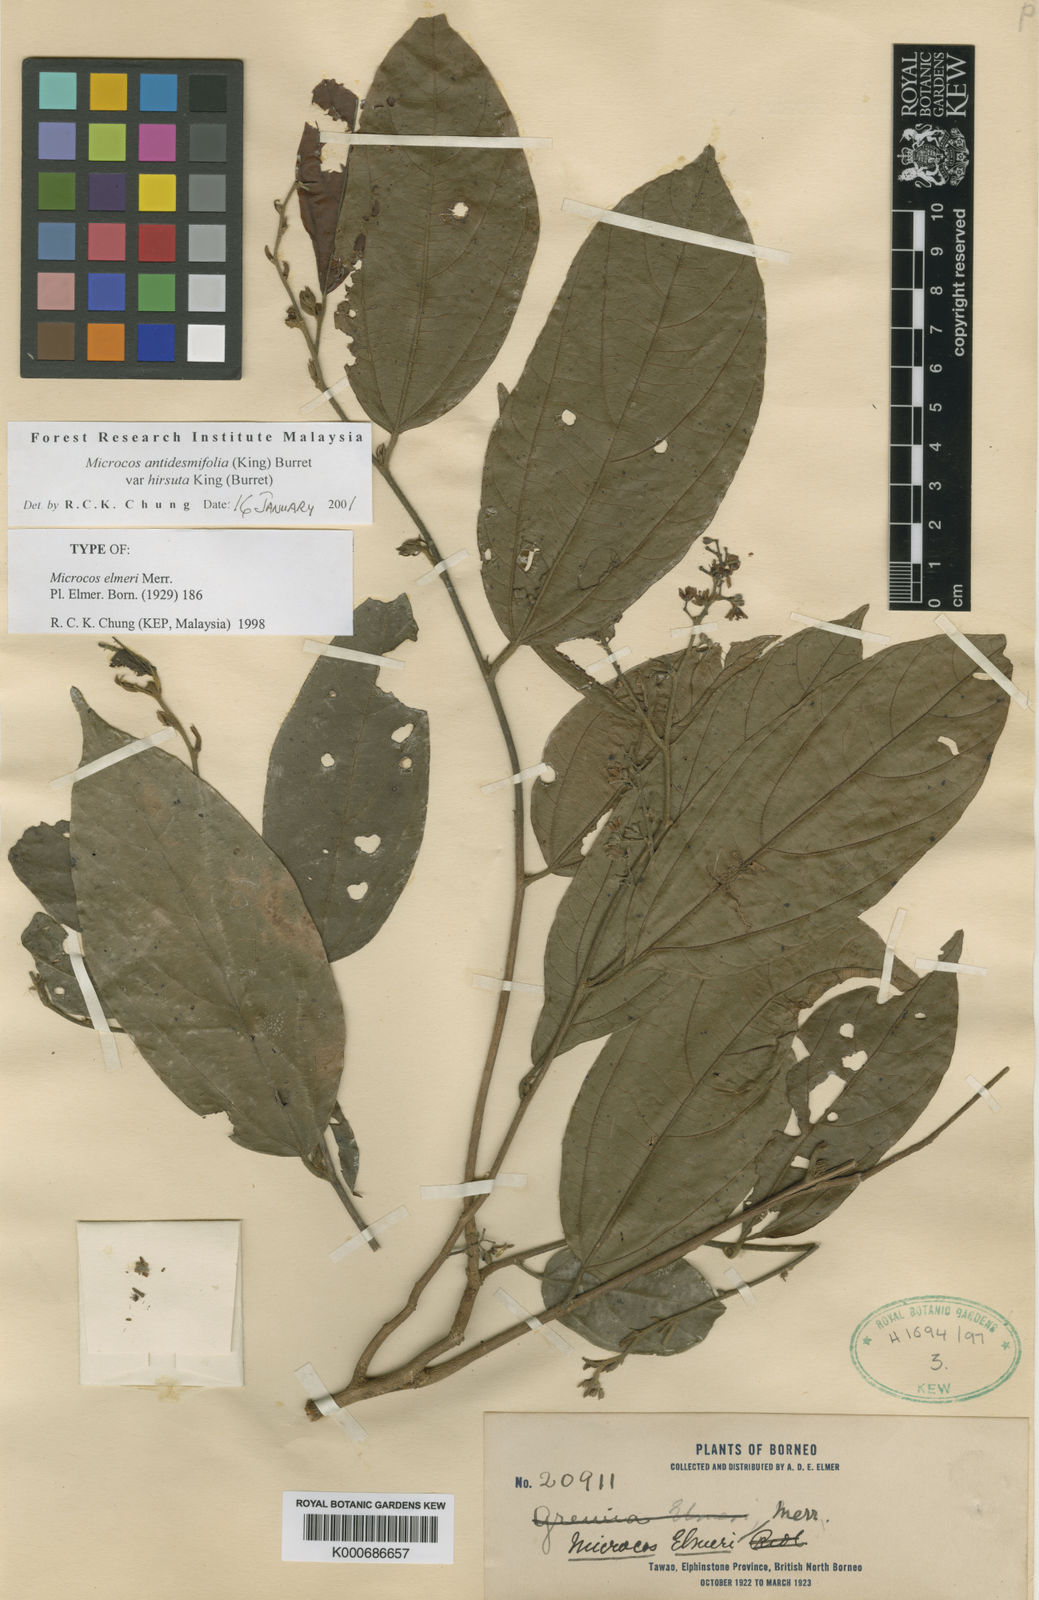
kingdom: Plantae
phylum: Tracheophyta
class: Magnoliopsida
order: Malvales
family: Malvaceae
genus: Microcos
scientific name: Microcos antidesmifolia
